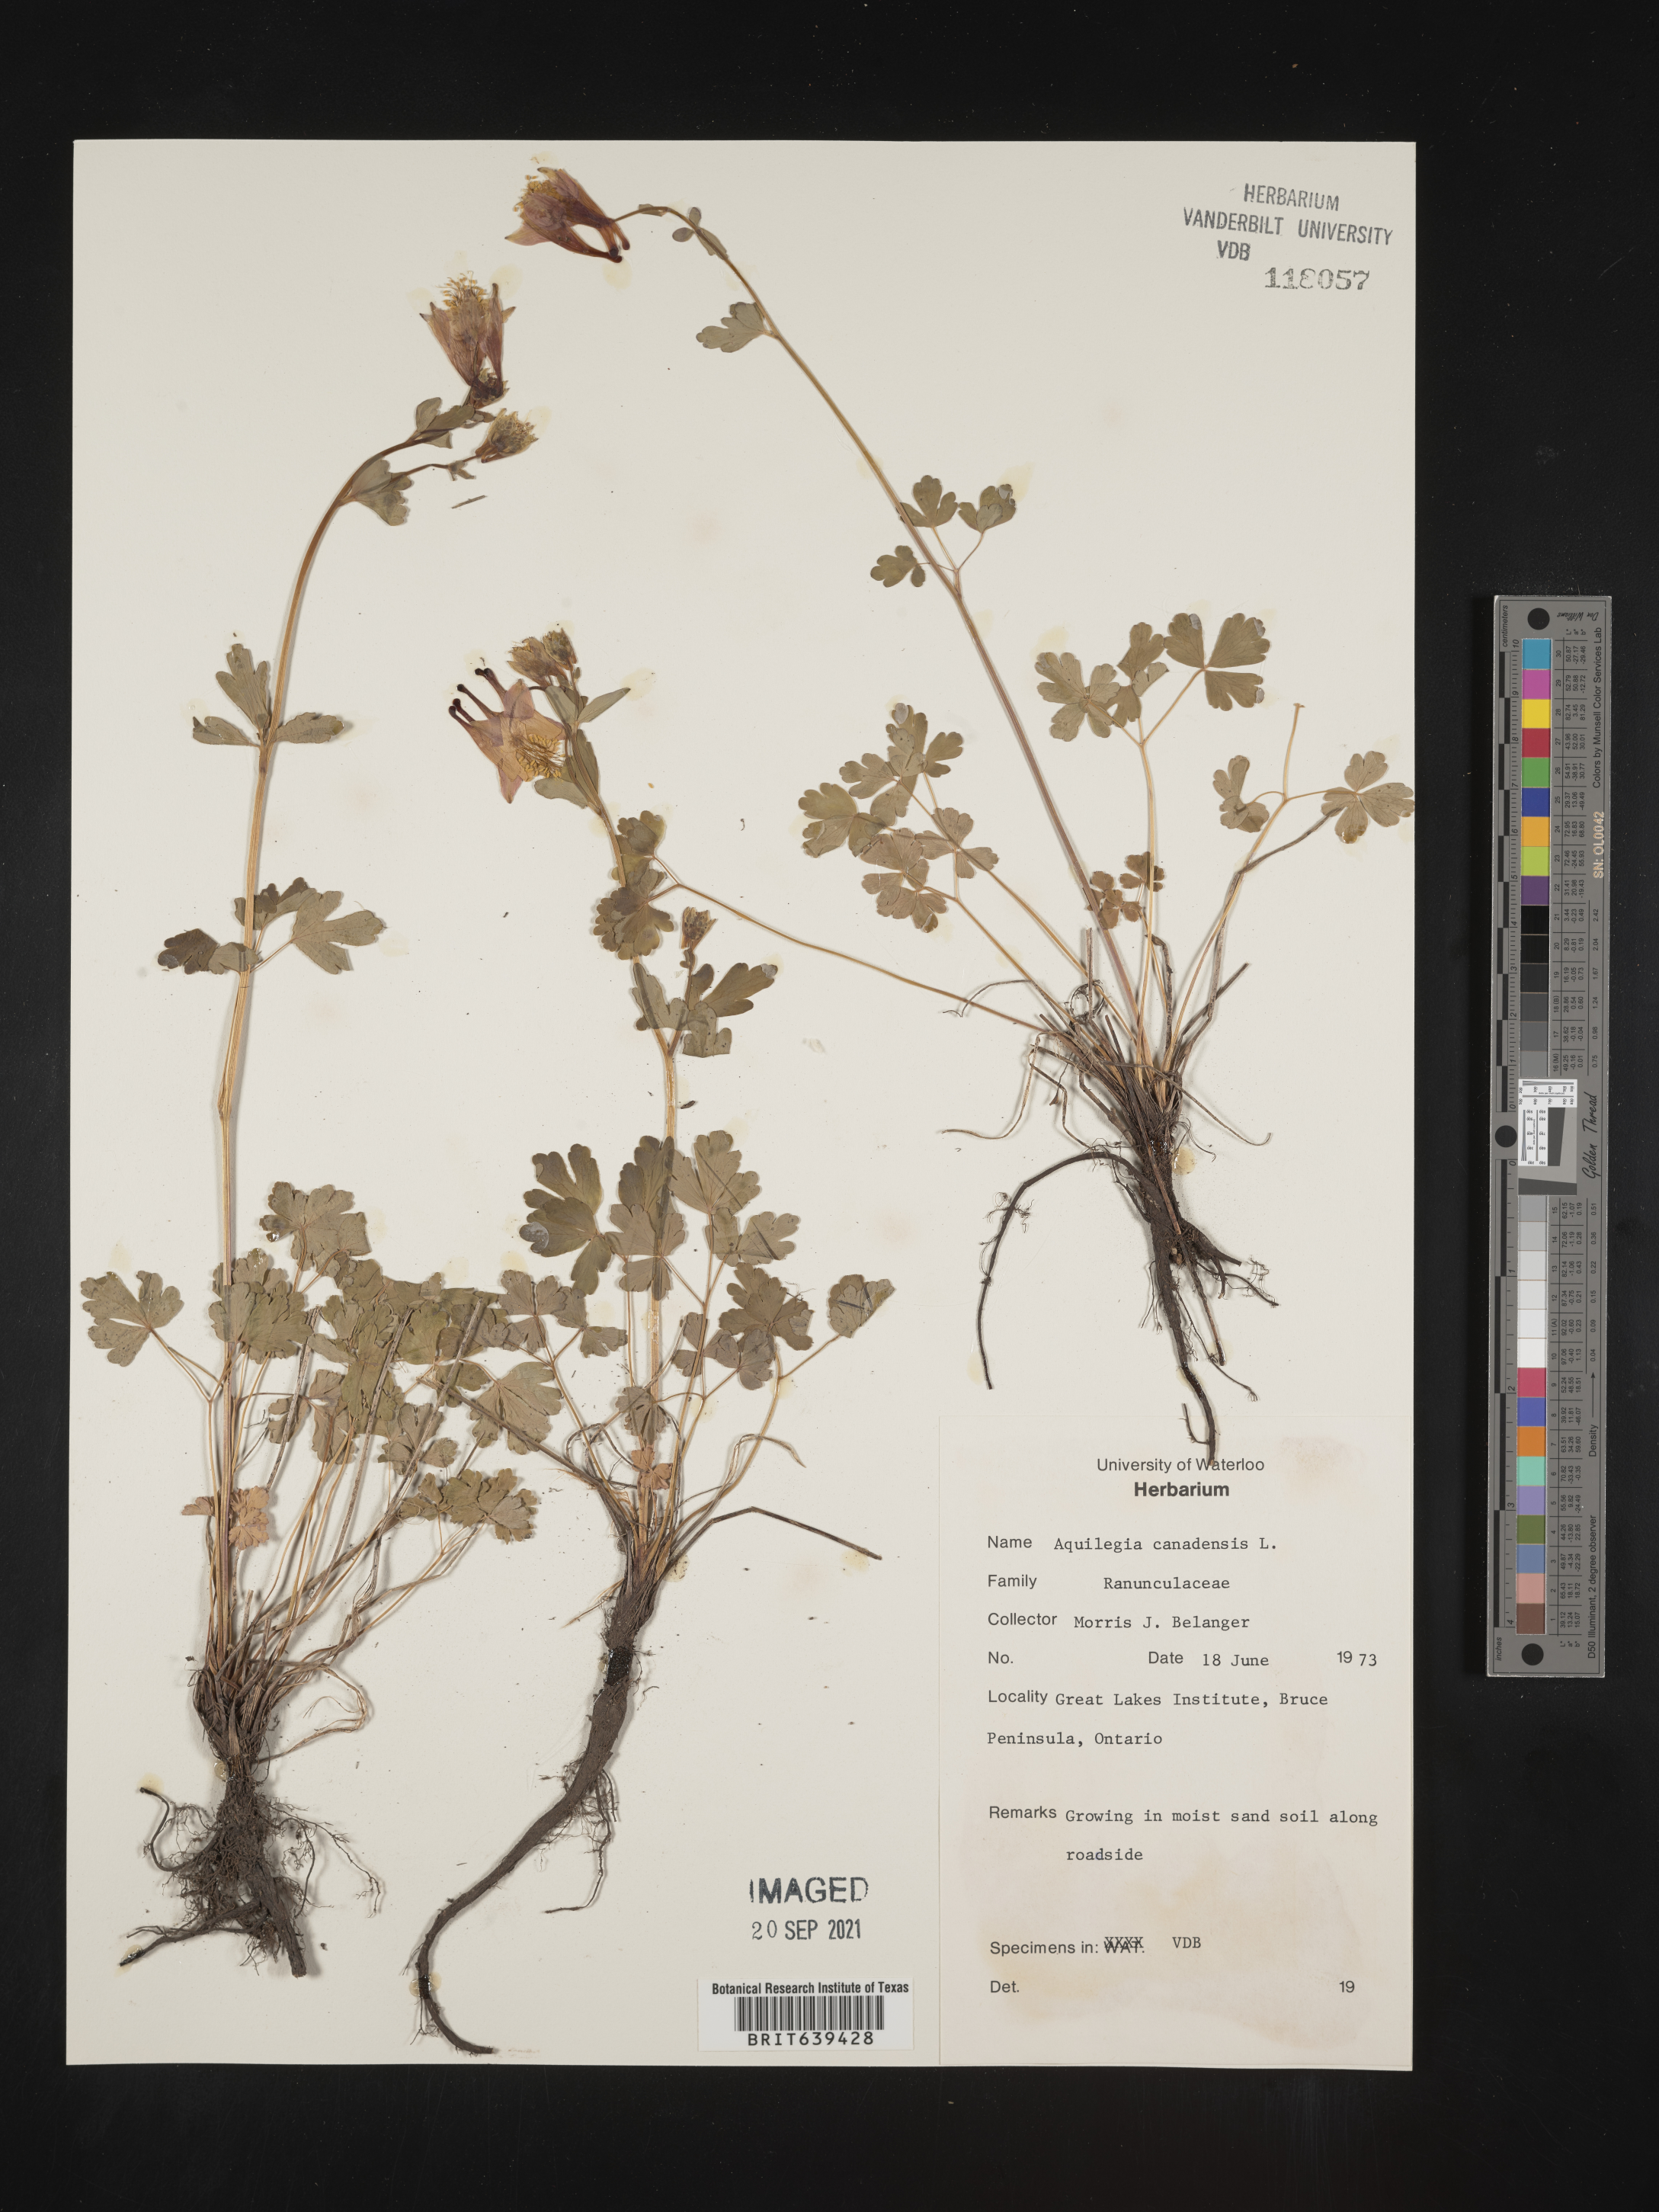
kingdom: Plantae
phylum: Tracheophyta
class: Magnoliopsida
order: Ranunculales
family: Ranunculaceae
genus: Aquilegia
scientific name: Aquilegia
